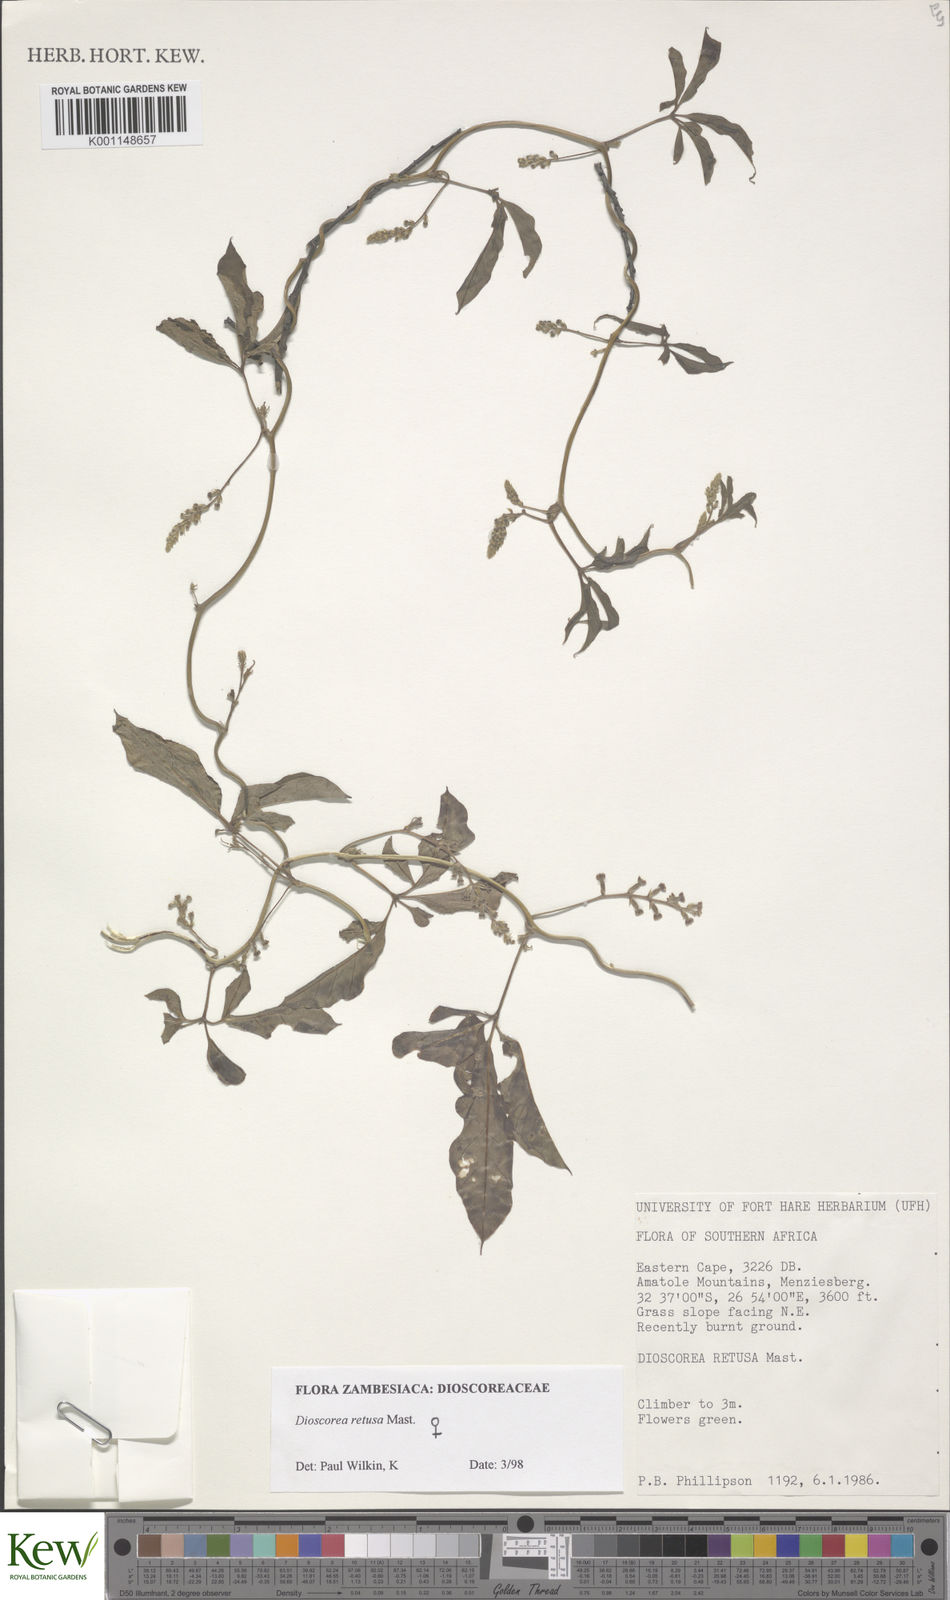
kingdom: Plantae
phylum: Tracheophyta
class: Liliopsida
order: Dioscoreales
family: Dioscoreaceae
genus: Dioscorea
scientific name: Dioscorea retusa
